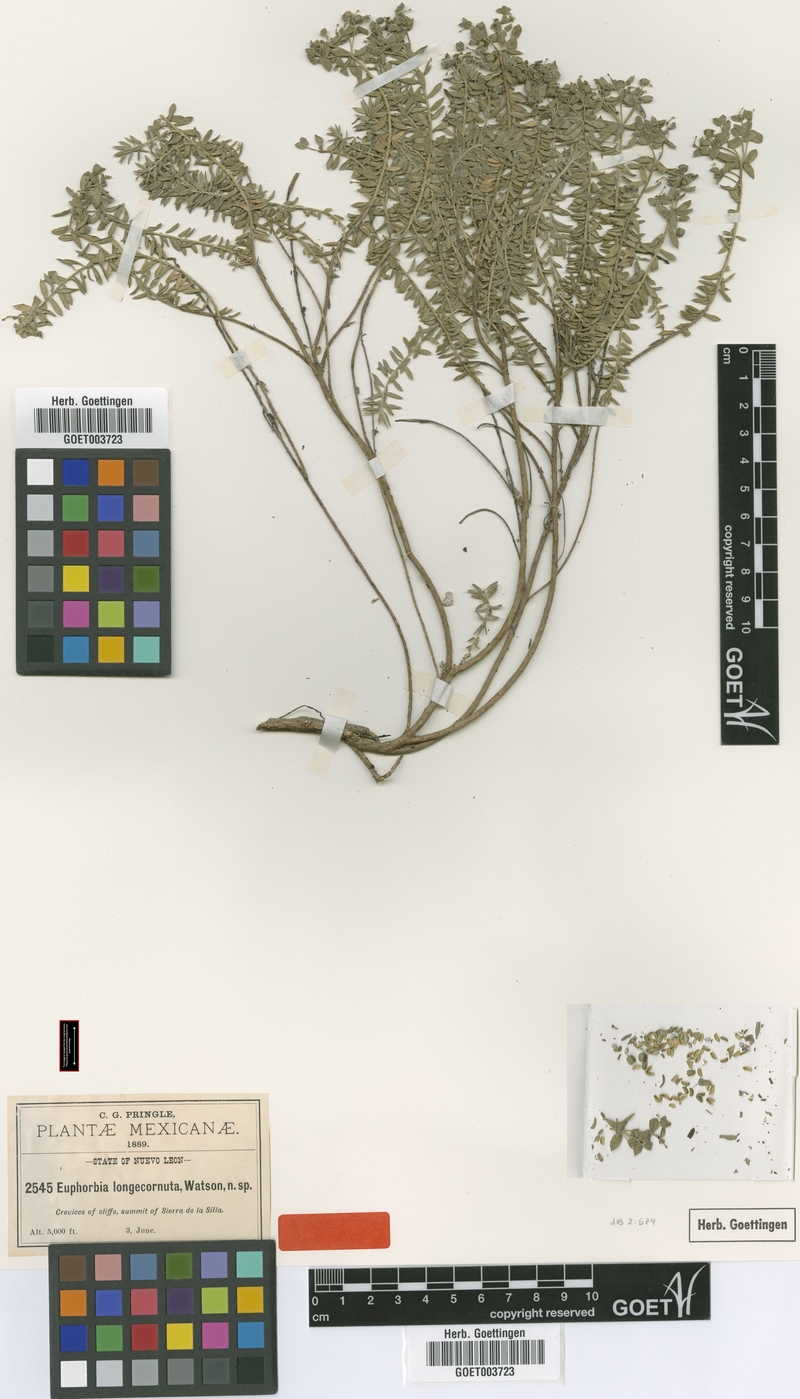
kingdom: Plantae
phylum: Tracheophyta
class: Magnoliopsida
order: Malpighiales
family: Euphorbiaceae
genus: Euphorbia
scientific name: Euphorbia longecornuta
